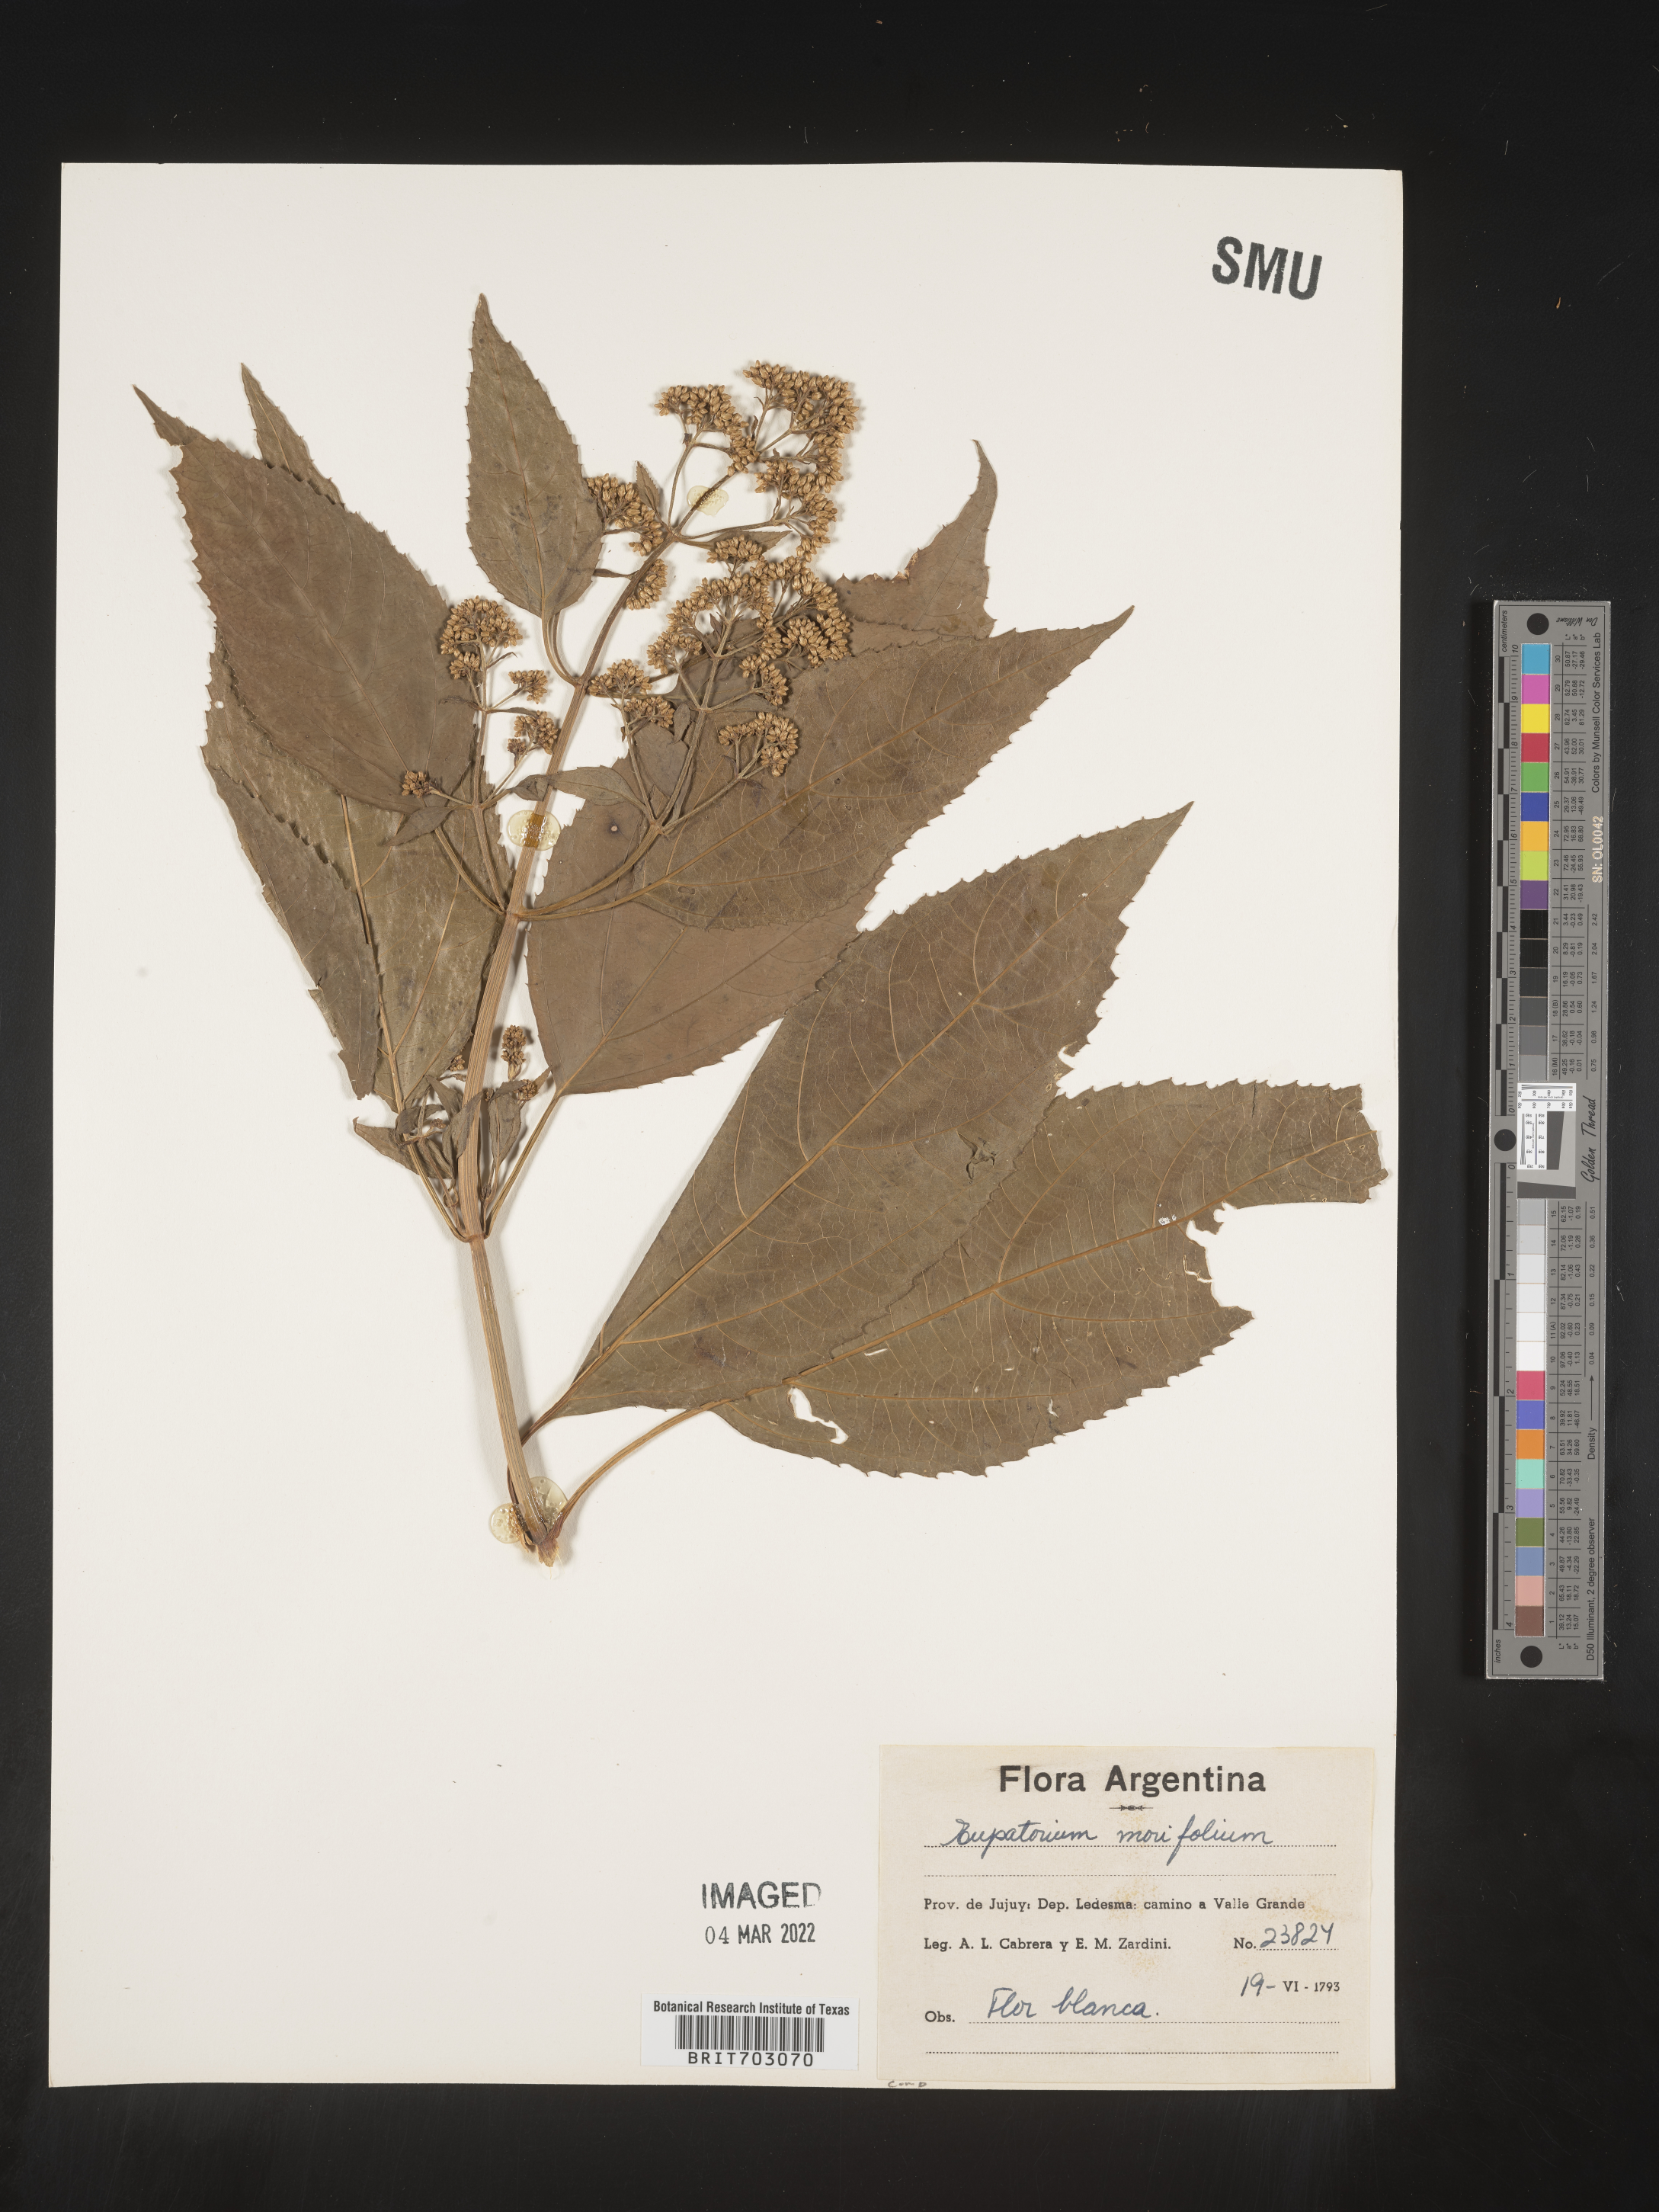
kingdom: Plantae
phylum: Tracheophyta
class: Magnoliopsida
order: Asterales
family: Asteraceae
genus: Eupatorium
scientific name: Eupatorium
